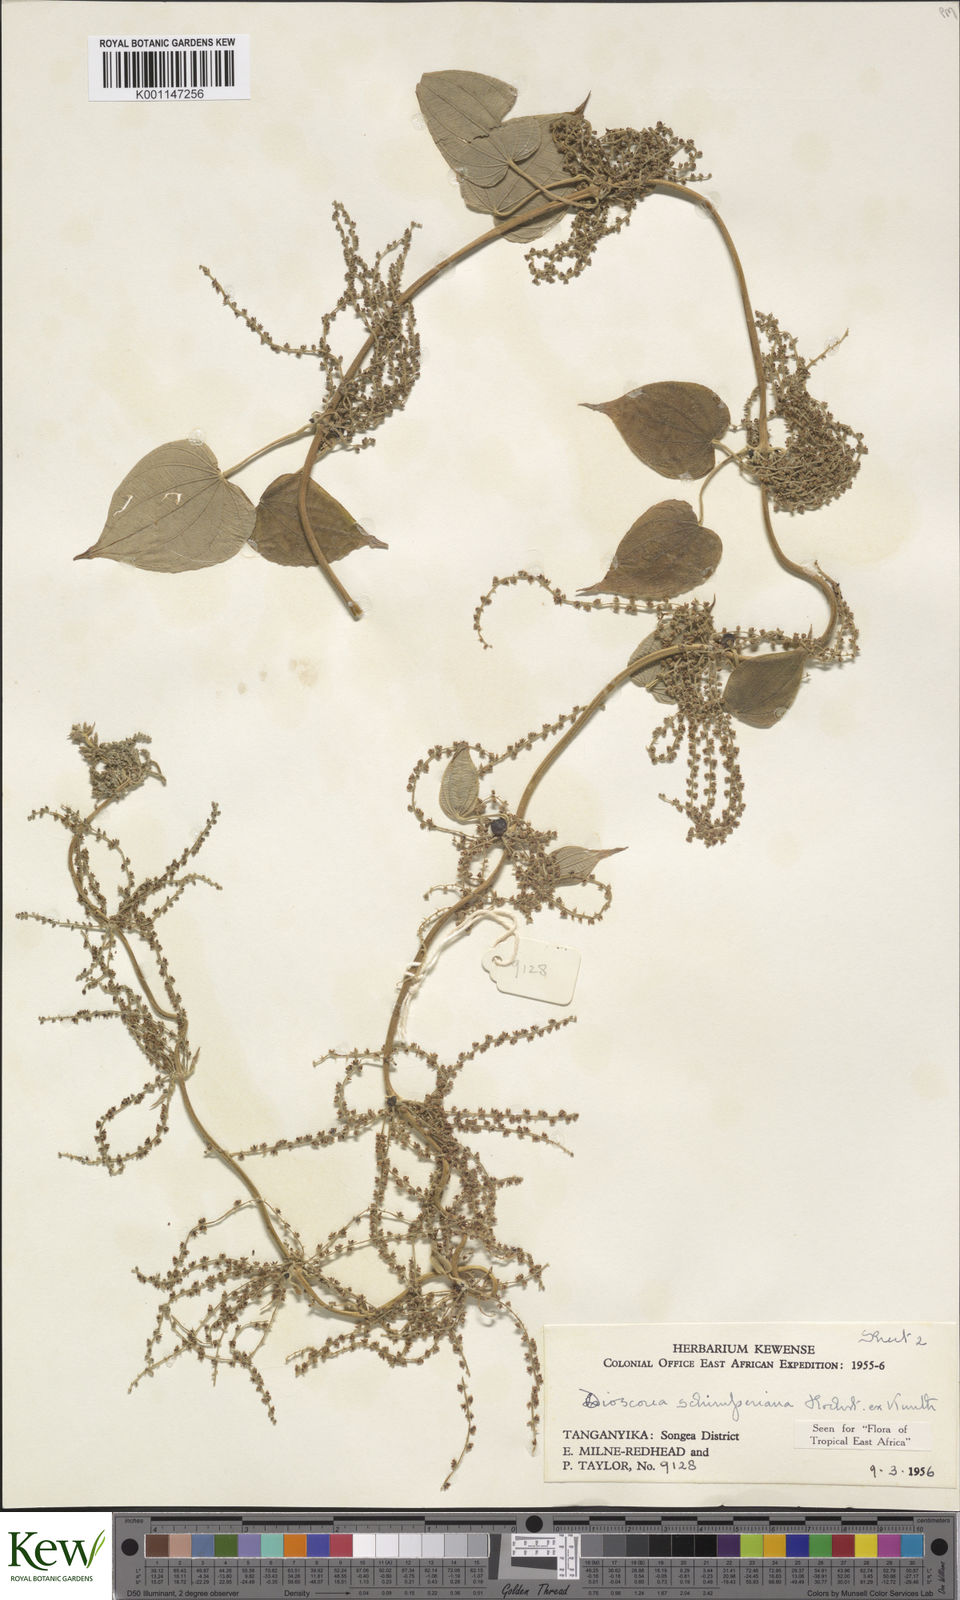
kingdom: Plantae
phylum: Tracheophyta
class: Liliopsida
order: Dioscoreales
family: Dioscoreaceae
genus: Dioscorea
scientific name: Dioscorea schimperiana
